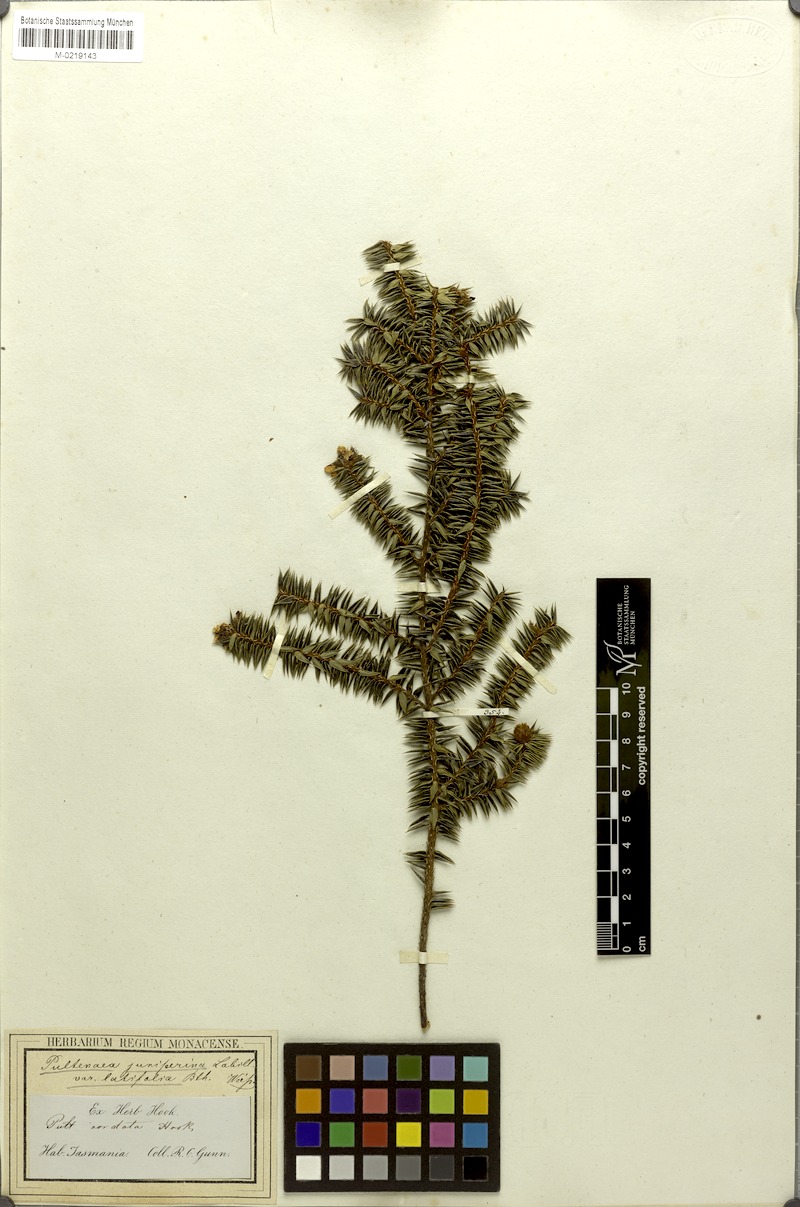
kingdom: Plantae
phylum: Tracheophyta
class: Magnoliopsida
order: Fabales
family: Fabaceae
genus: Pultenaea
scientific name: Pultenaea juniperina
